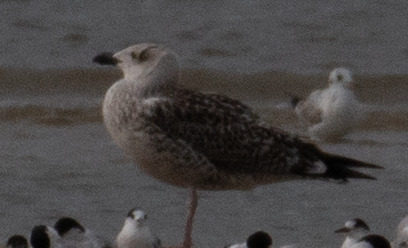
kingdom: Animalia
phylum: Chordata
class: Aves
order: Charadriiformes
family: Laridae
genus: Larus
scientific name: Larus marinus
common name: Svartbag
